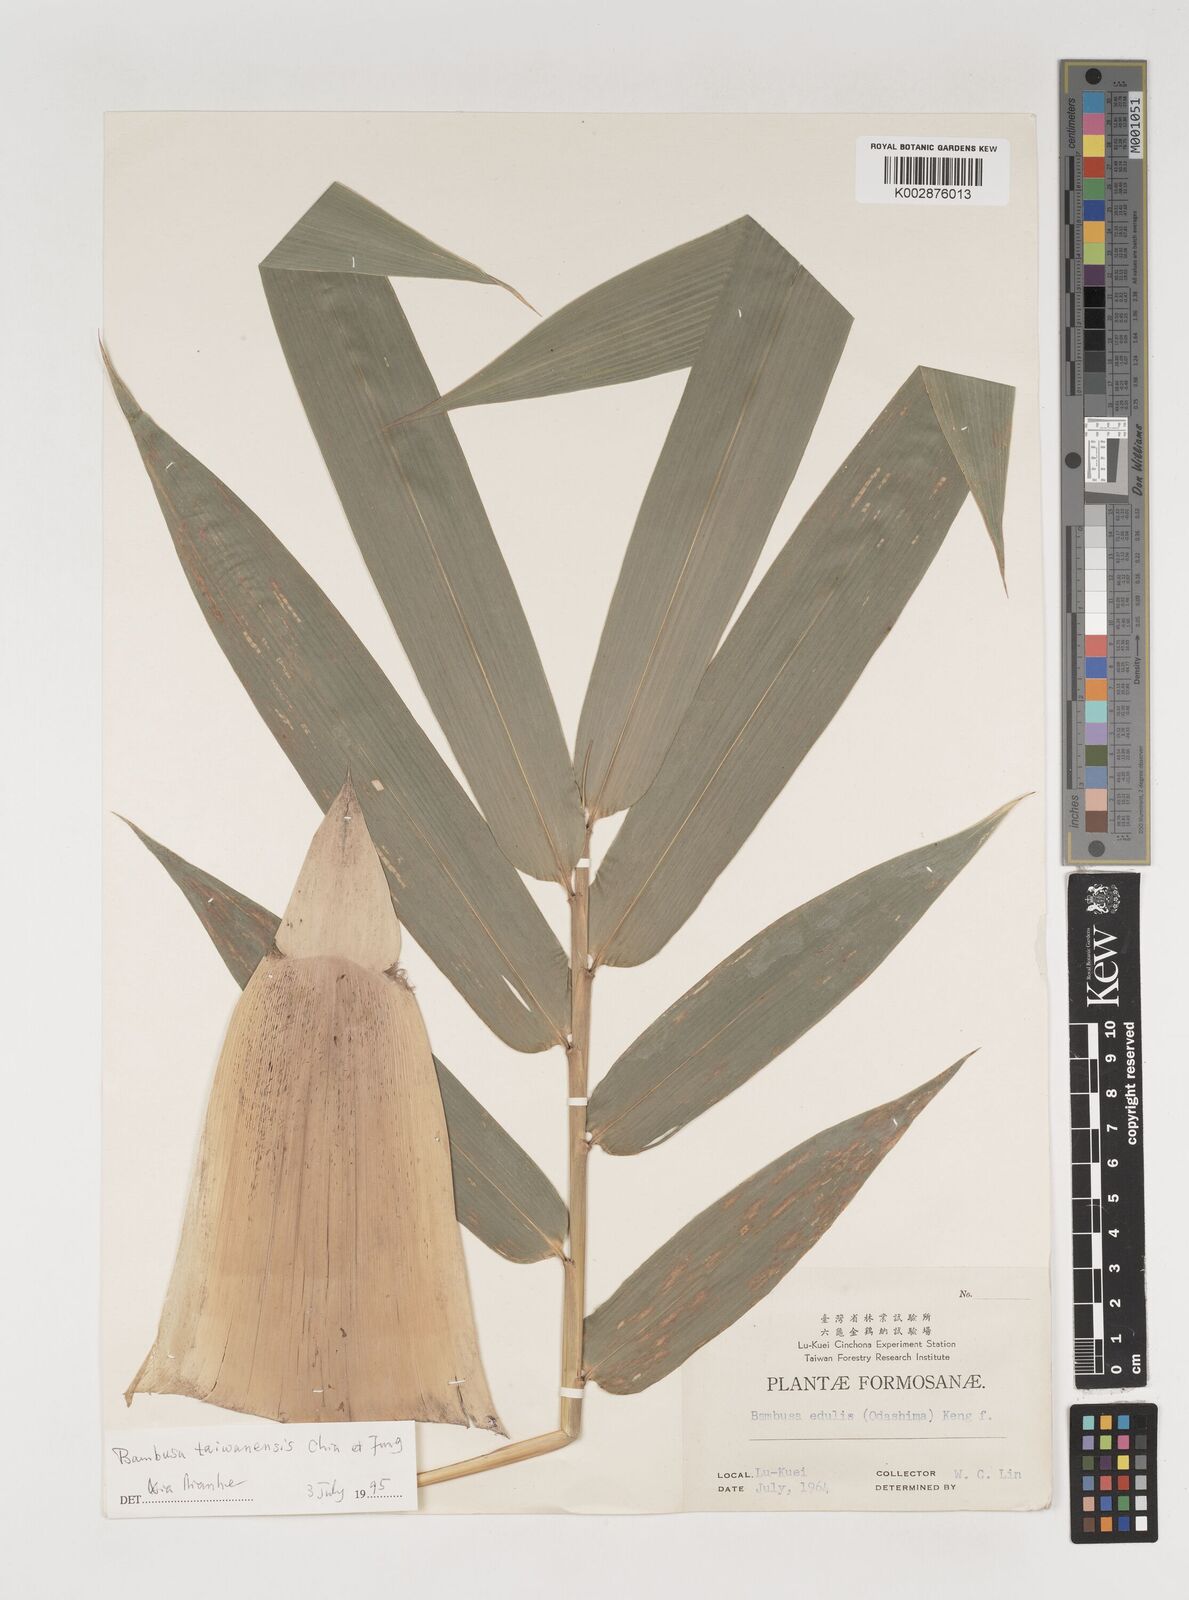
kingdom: Plantae
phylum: Tracheophyta
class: Liliopsida
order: Poales
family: Poaceae
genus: Bambusa
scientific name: Bambusa odashimae
